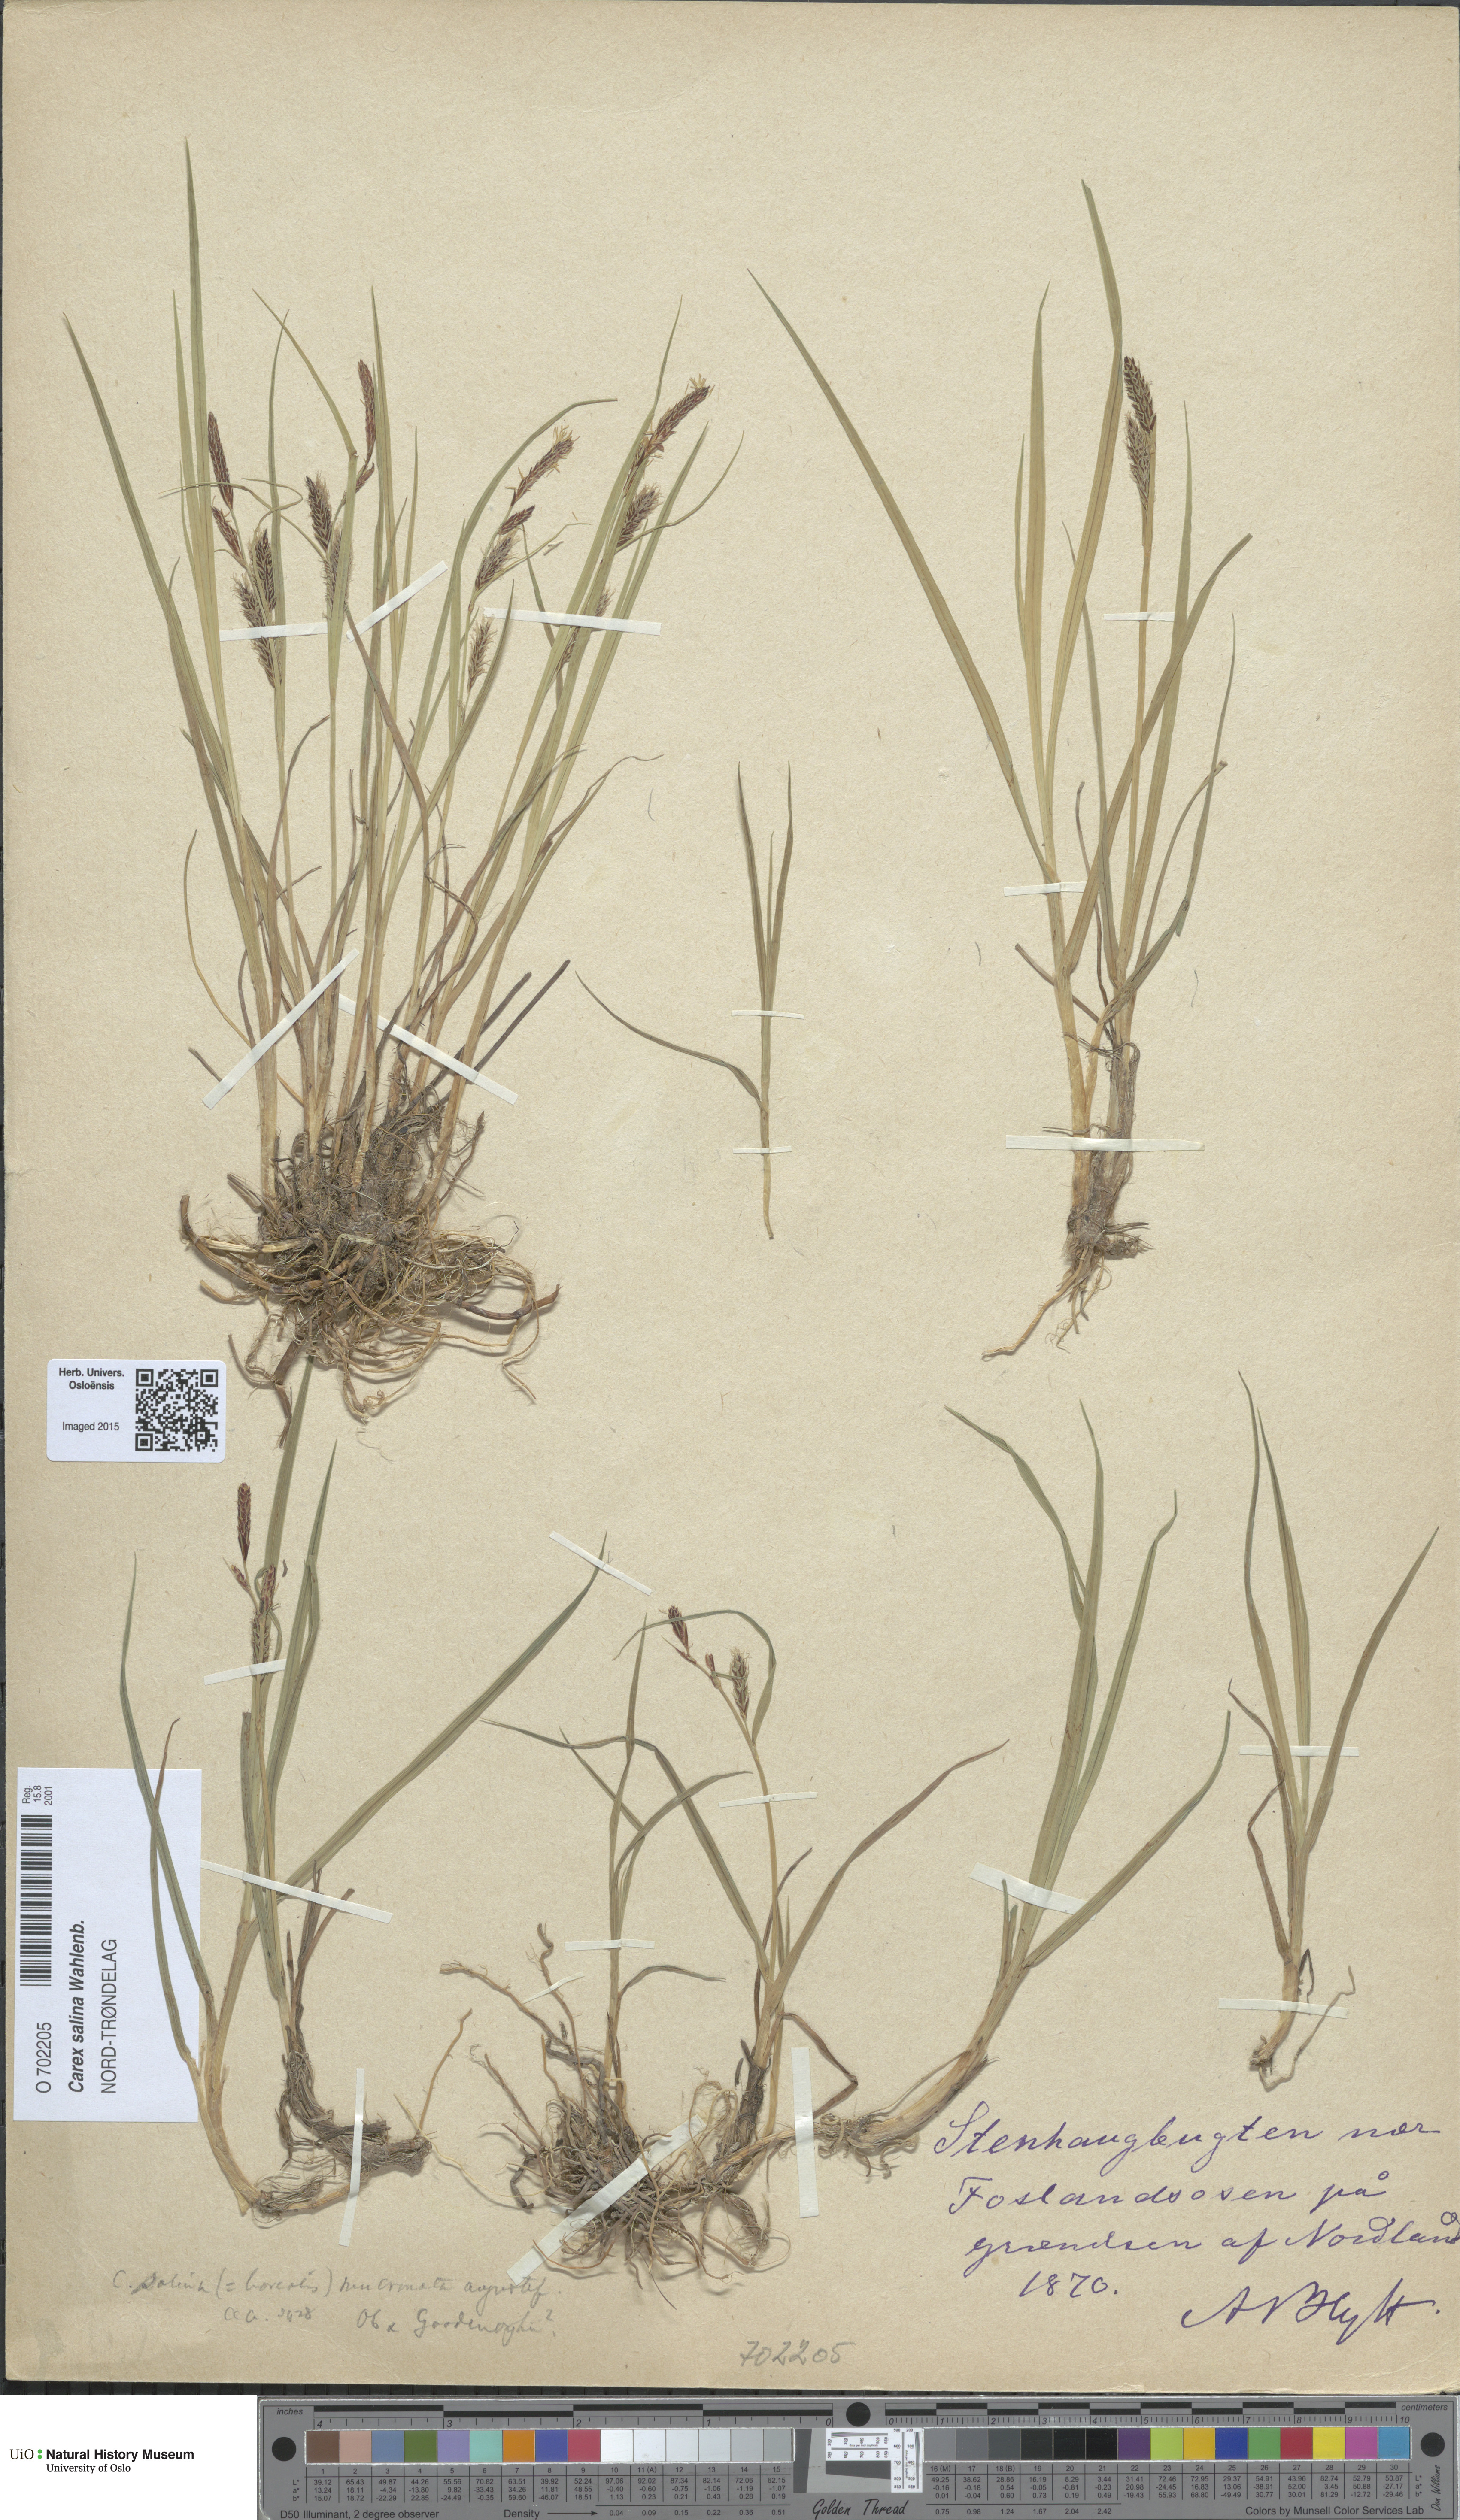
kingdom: Plantae
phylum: Tracheophyta
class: Liliopsida
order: Poales
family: Cyperaceae
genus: Carex
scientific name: Carex salina
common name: Saltmarsh sedge
